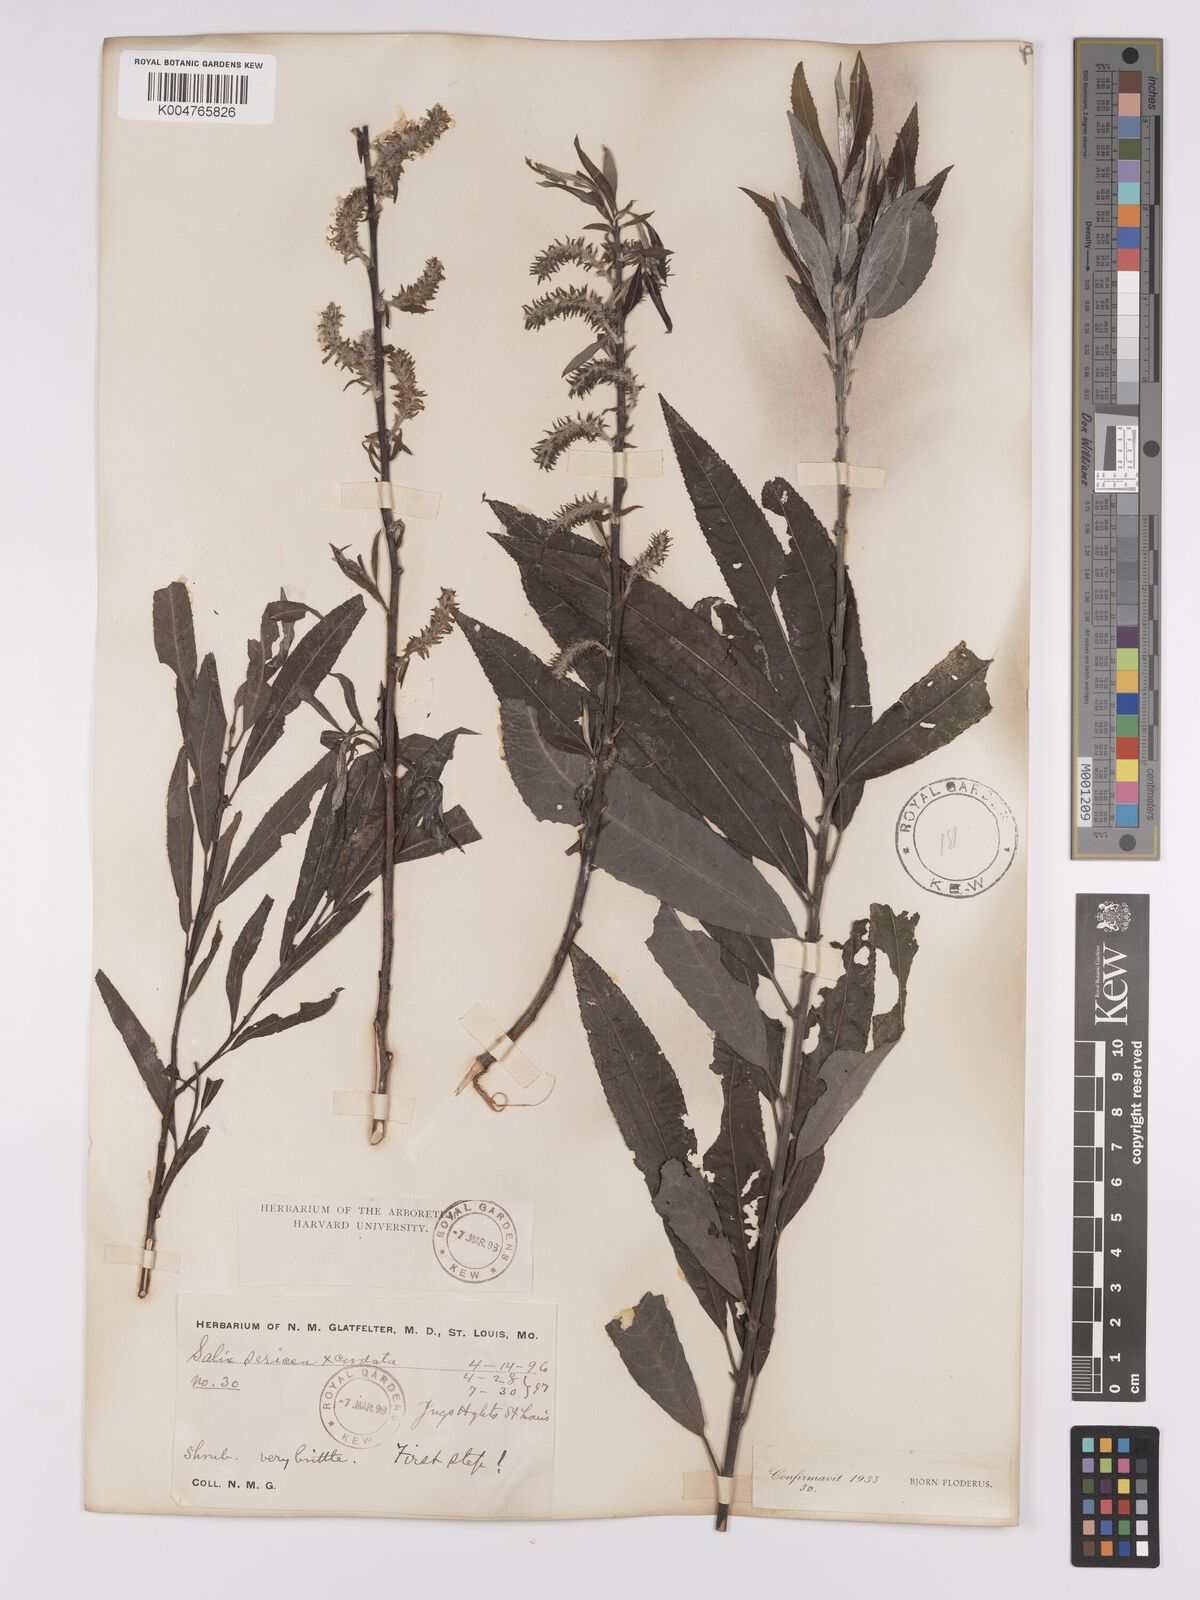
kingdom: Plantae
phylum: Tracheophyta
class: Magnoliopsida
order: Malpighiales
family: Salicaceae
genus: Salix
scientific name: Salix
